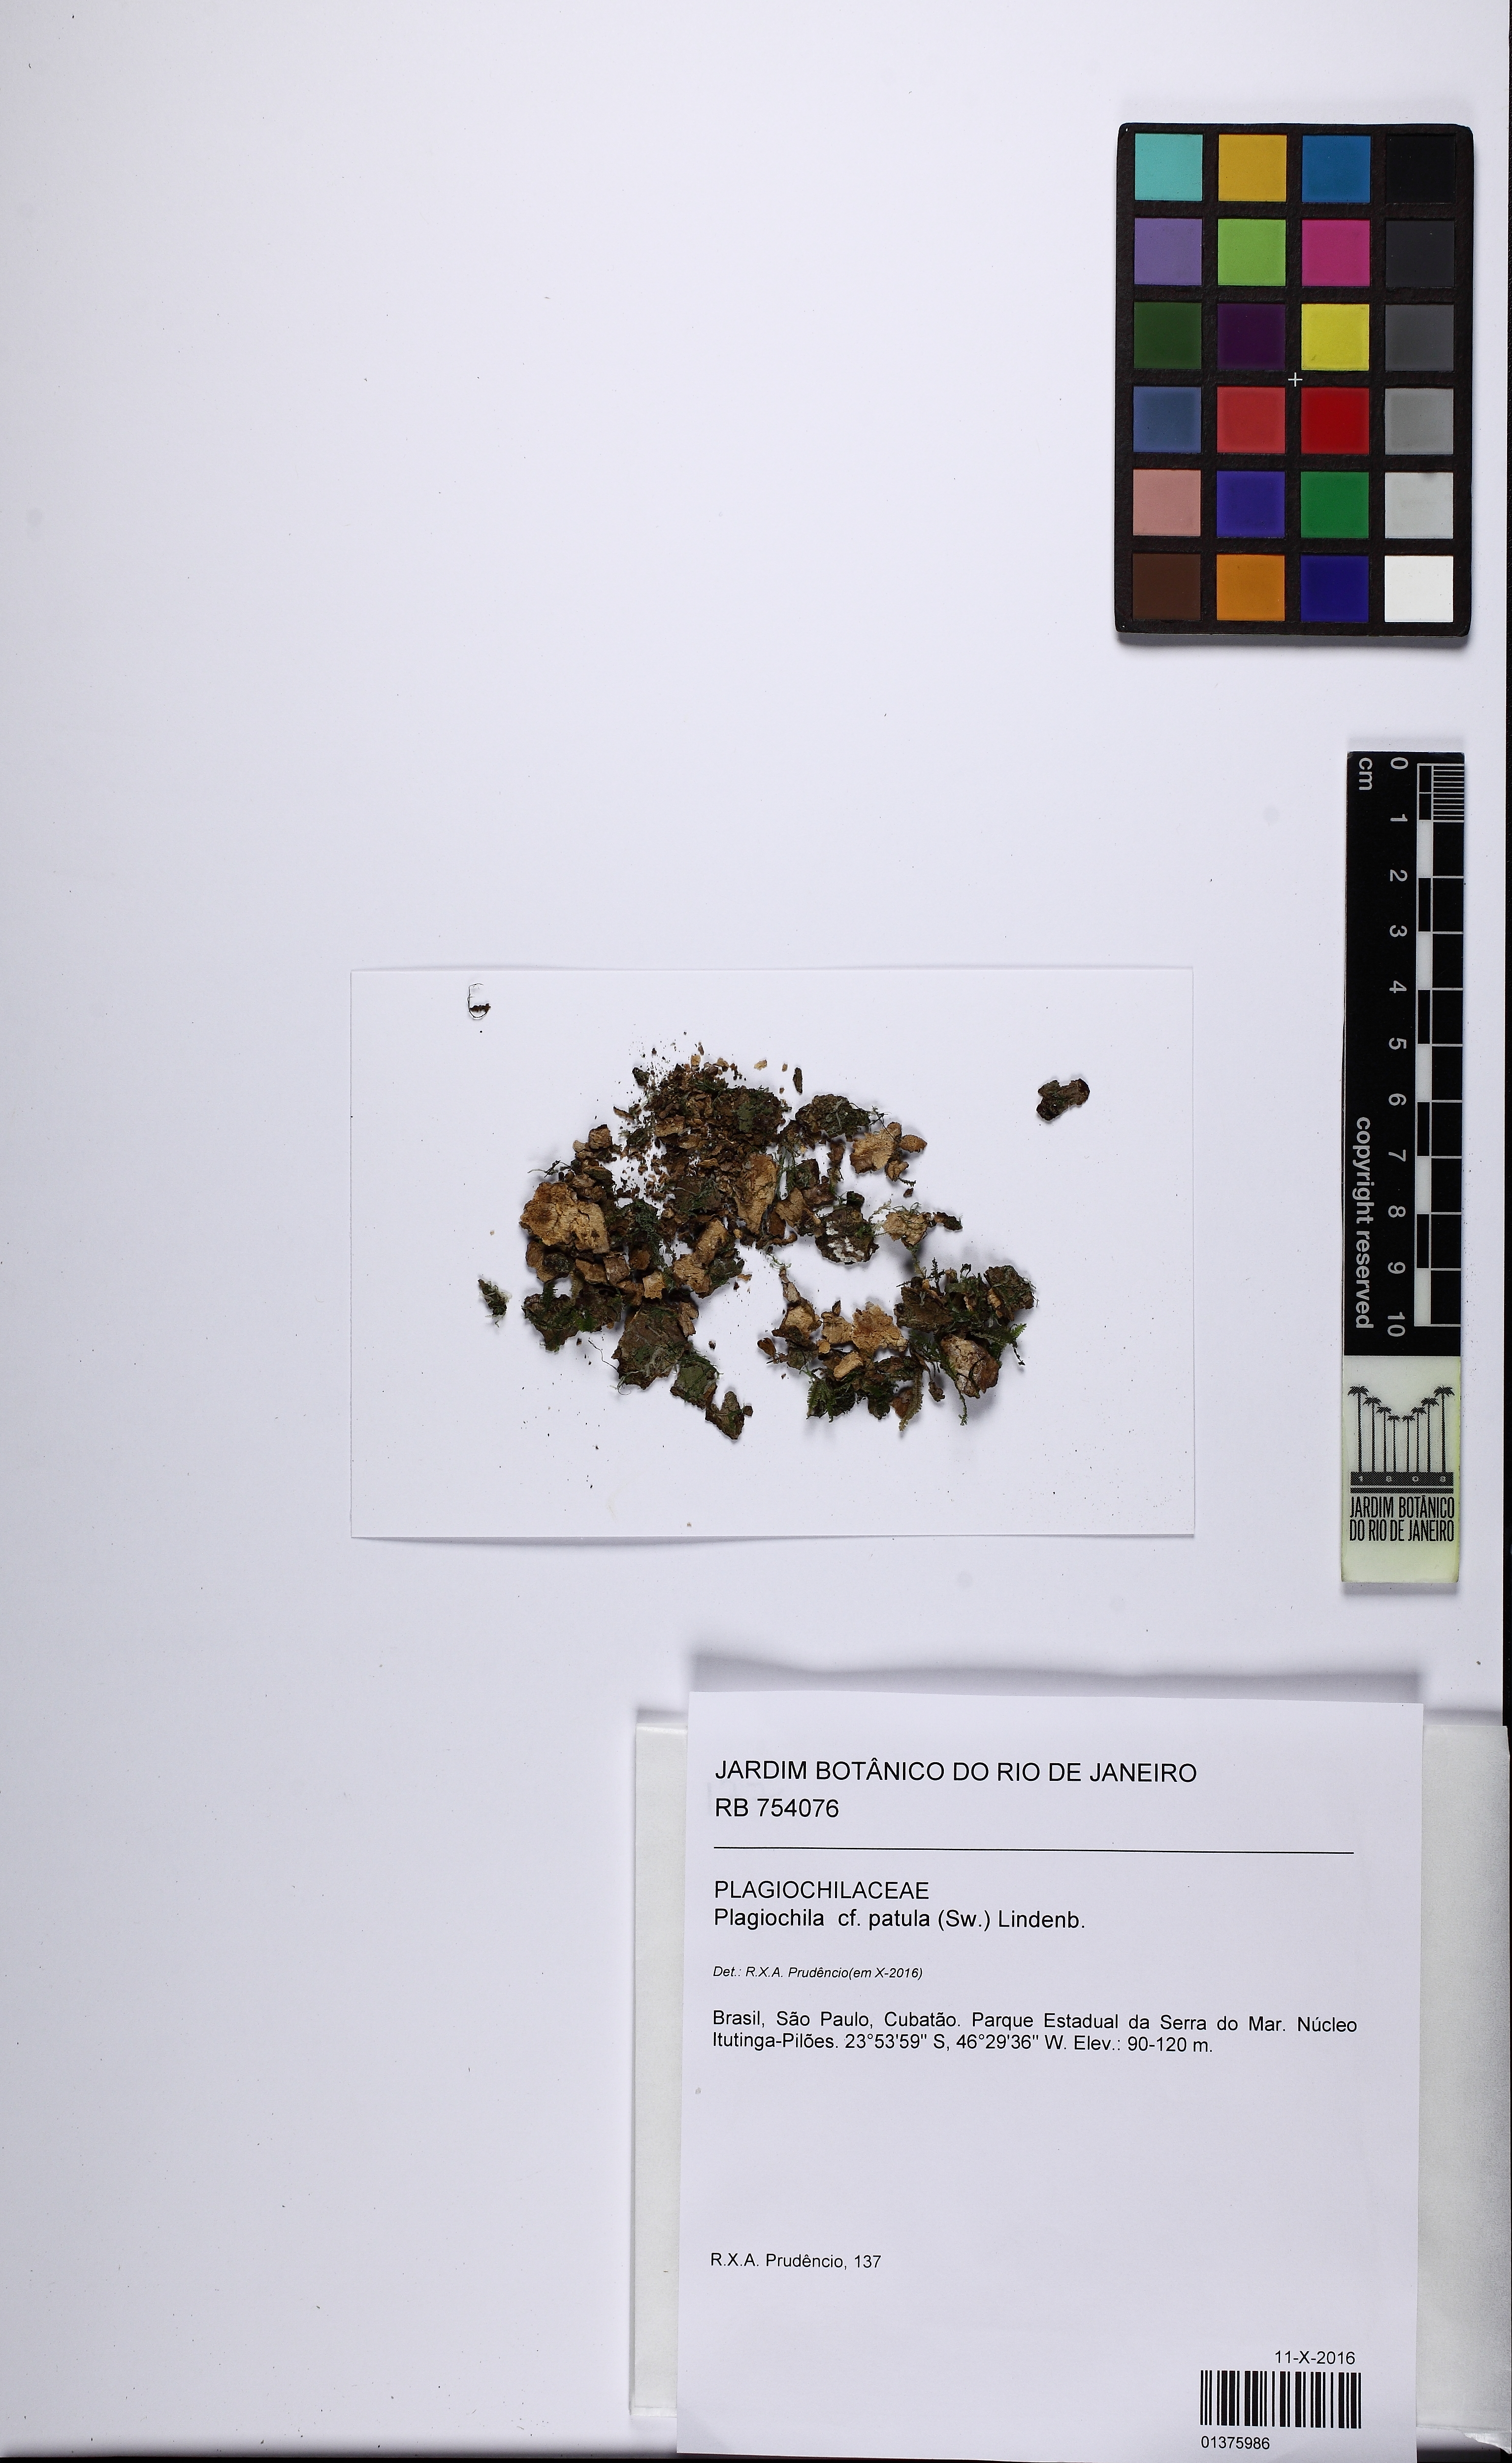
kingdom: Plantae
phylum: Marchantiophyta
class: Jungermanniopsida
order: Jungermanniales
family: Plagiochilaceae
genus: Plagiochila
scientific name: Plagiochila patula
